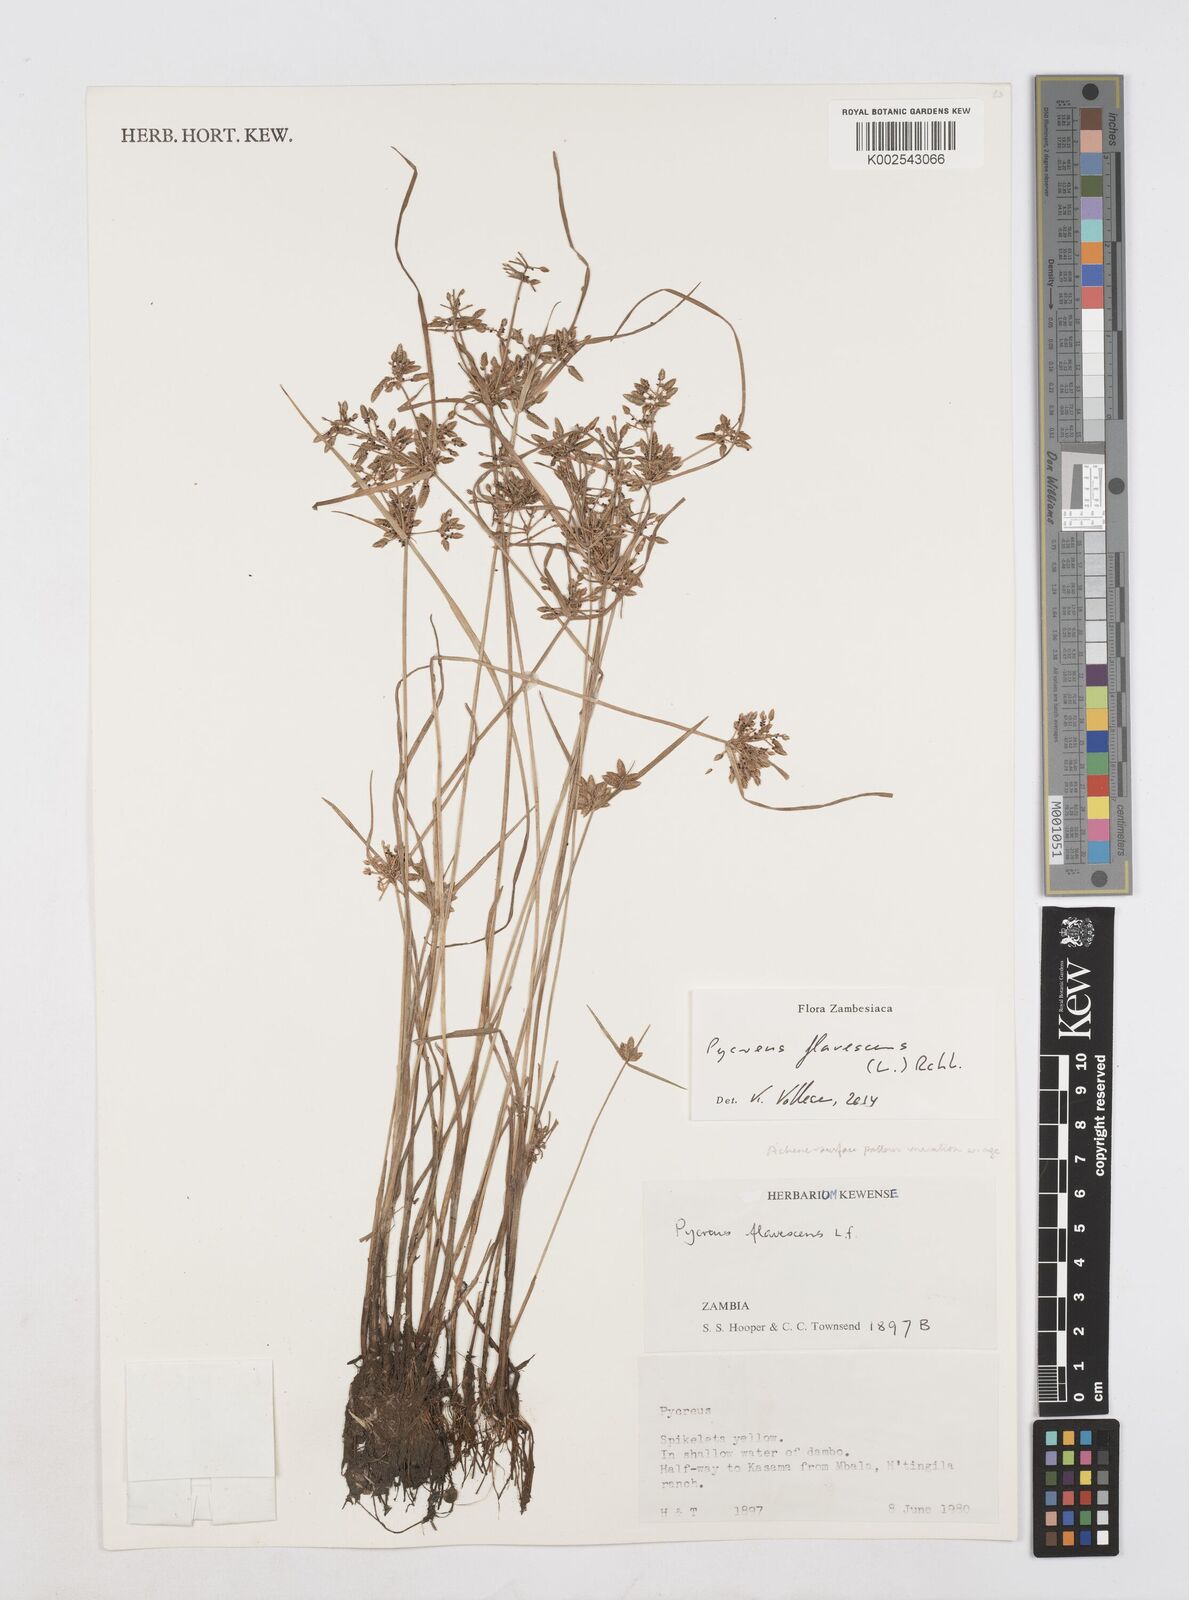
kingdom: Plantae
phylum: Tracheophyta
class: Liliopsida
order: Poales
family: Cyperaceae
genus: Cyperus
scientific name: Cyperus flavescens
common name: Yellow galingale
